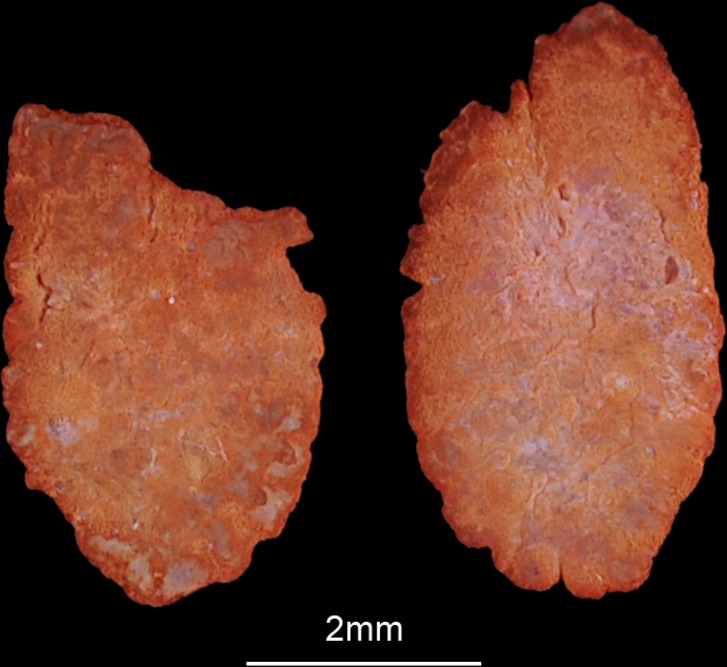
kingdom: Animalia
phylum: Chordata
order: Perciformes
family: Cichlidae
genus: Serranochromis
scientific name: Serranochromis angusticeps
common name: Thinface largemouth
